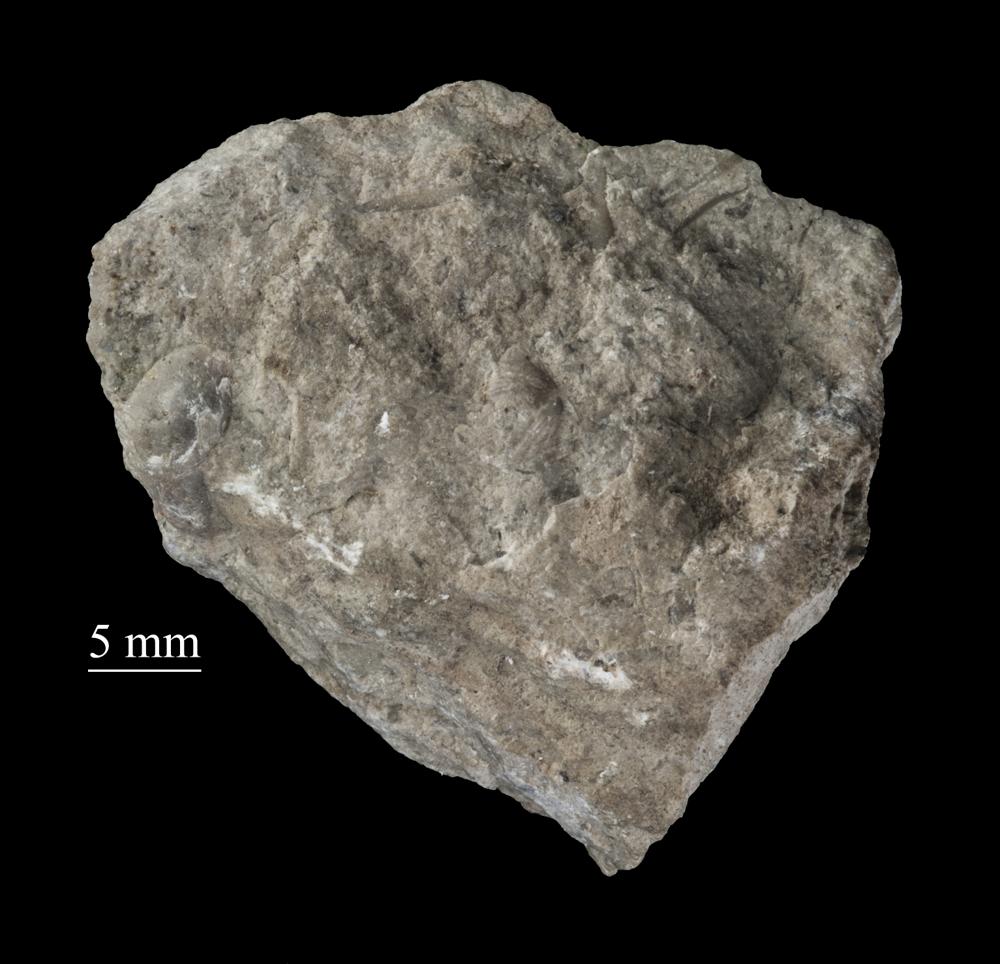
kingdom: Animalia
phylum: Mollusca
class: Gastropoda
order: Neogastropoda
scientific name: Neogastropoda
